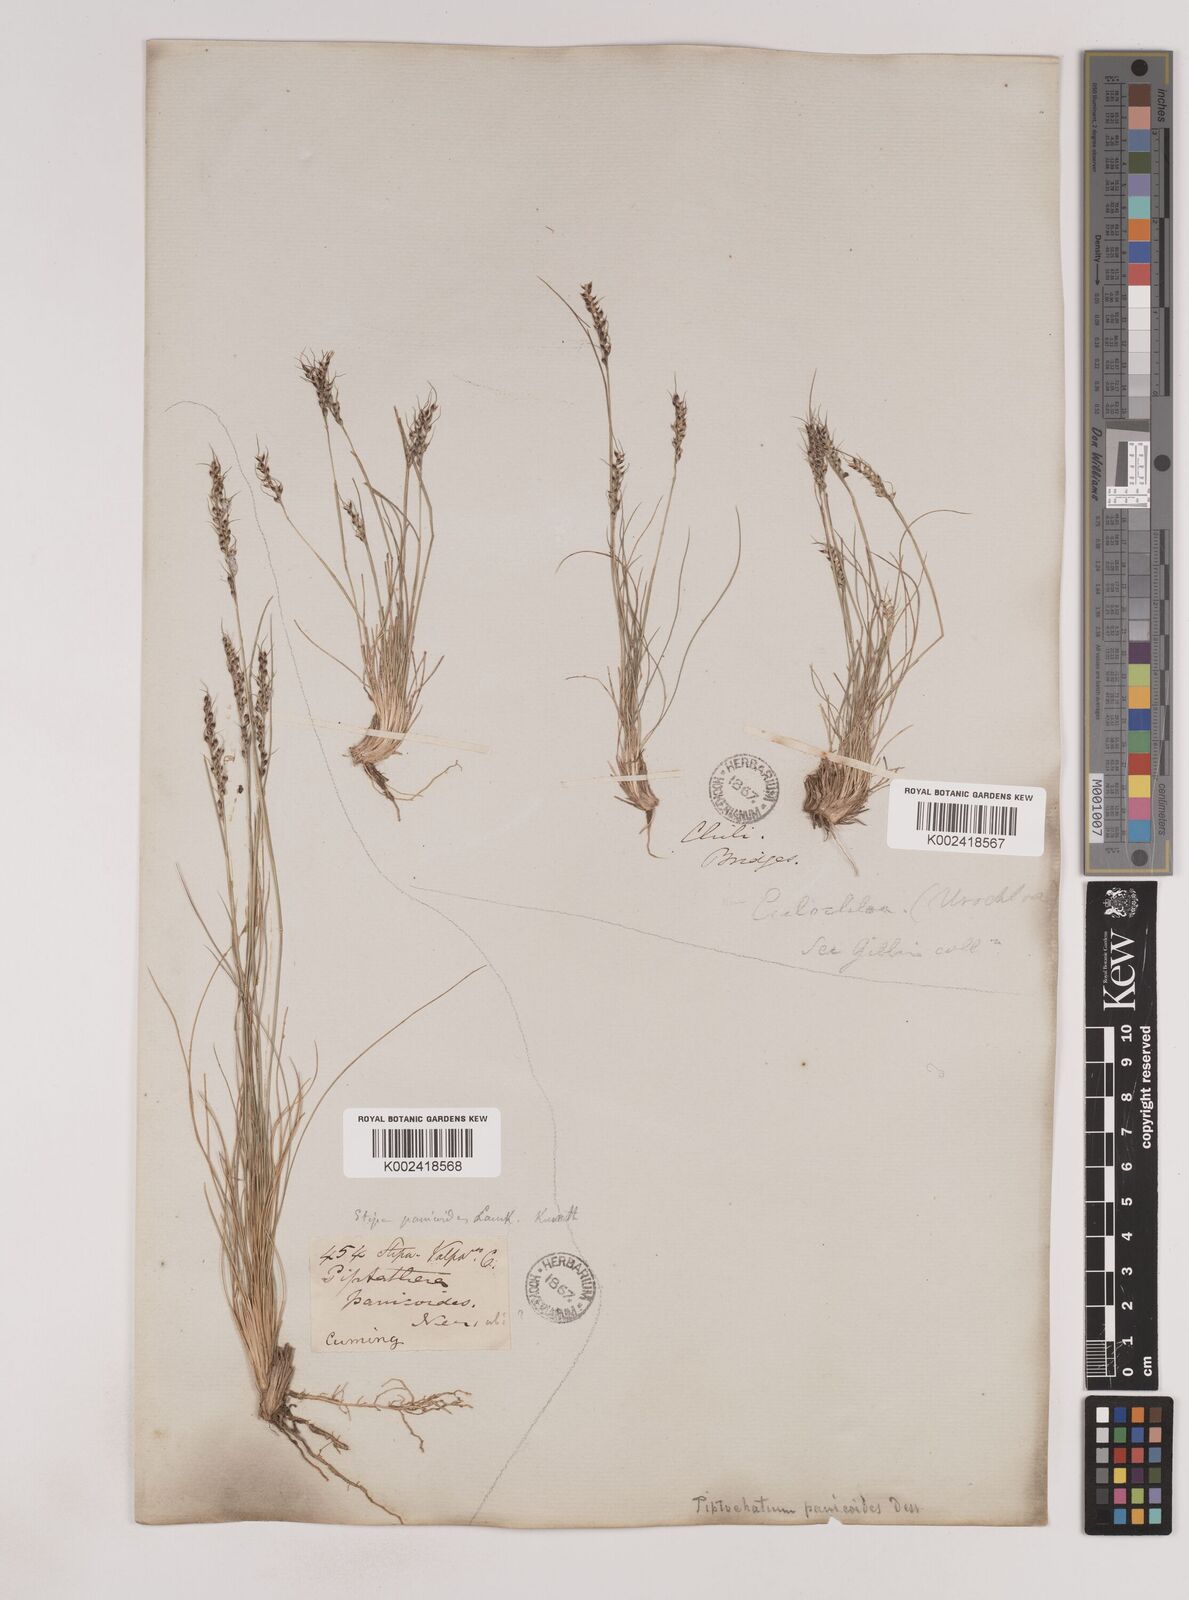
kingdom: Plantae
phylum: Tracheophyta
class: Liliopsida
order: Poales
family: Poaceae
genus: Piptochaetium
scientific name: Piptochaetium montevidense
